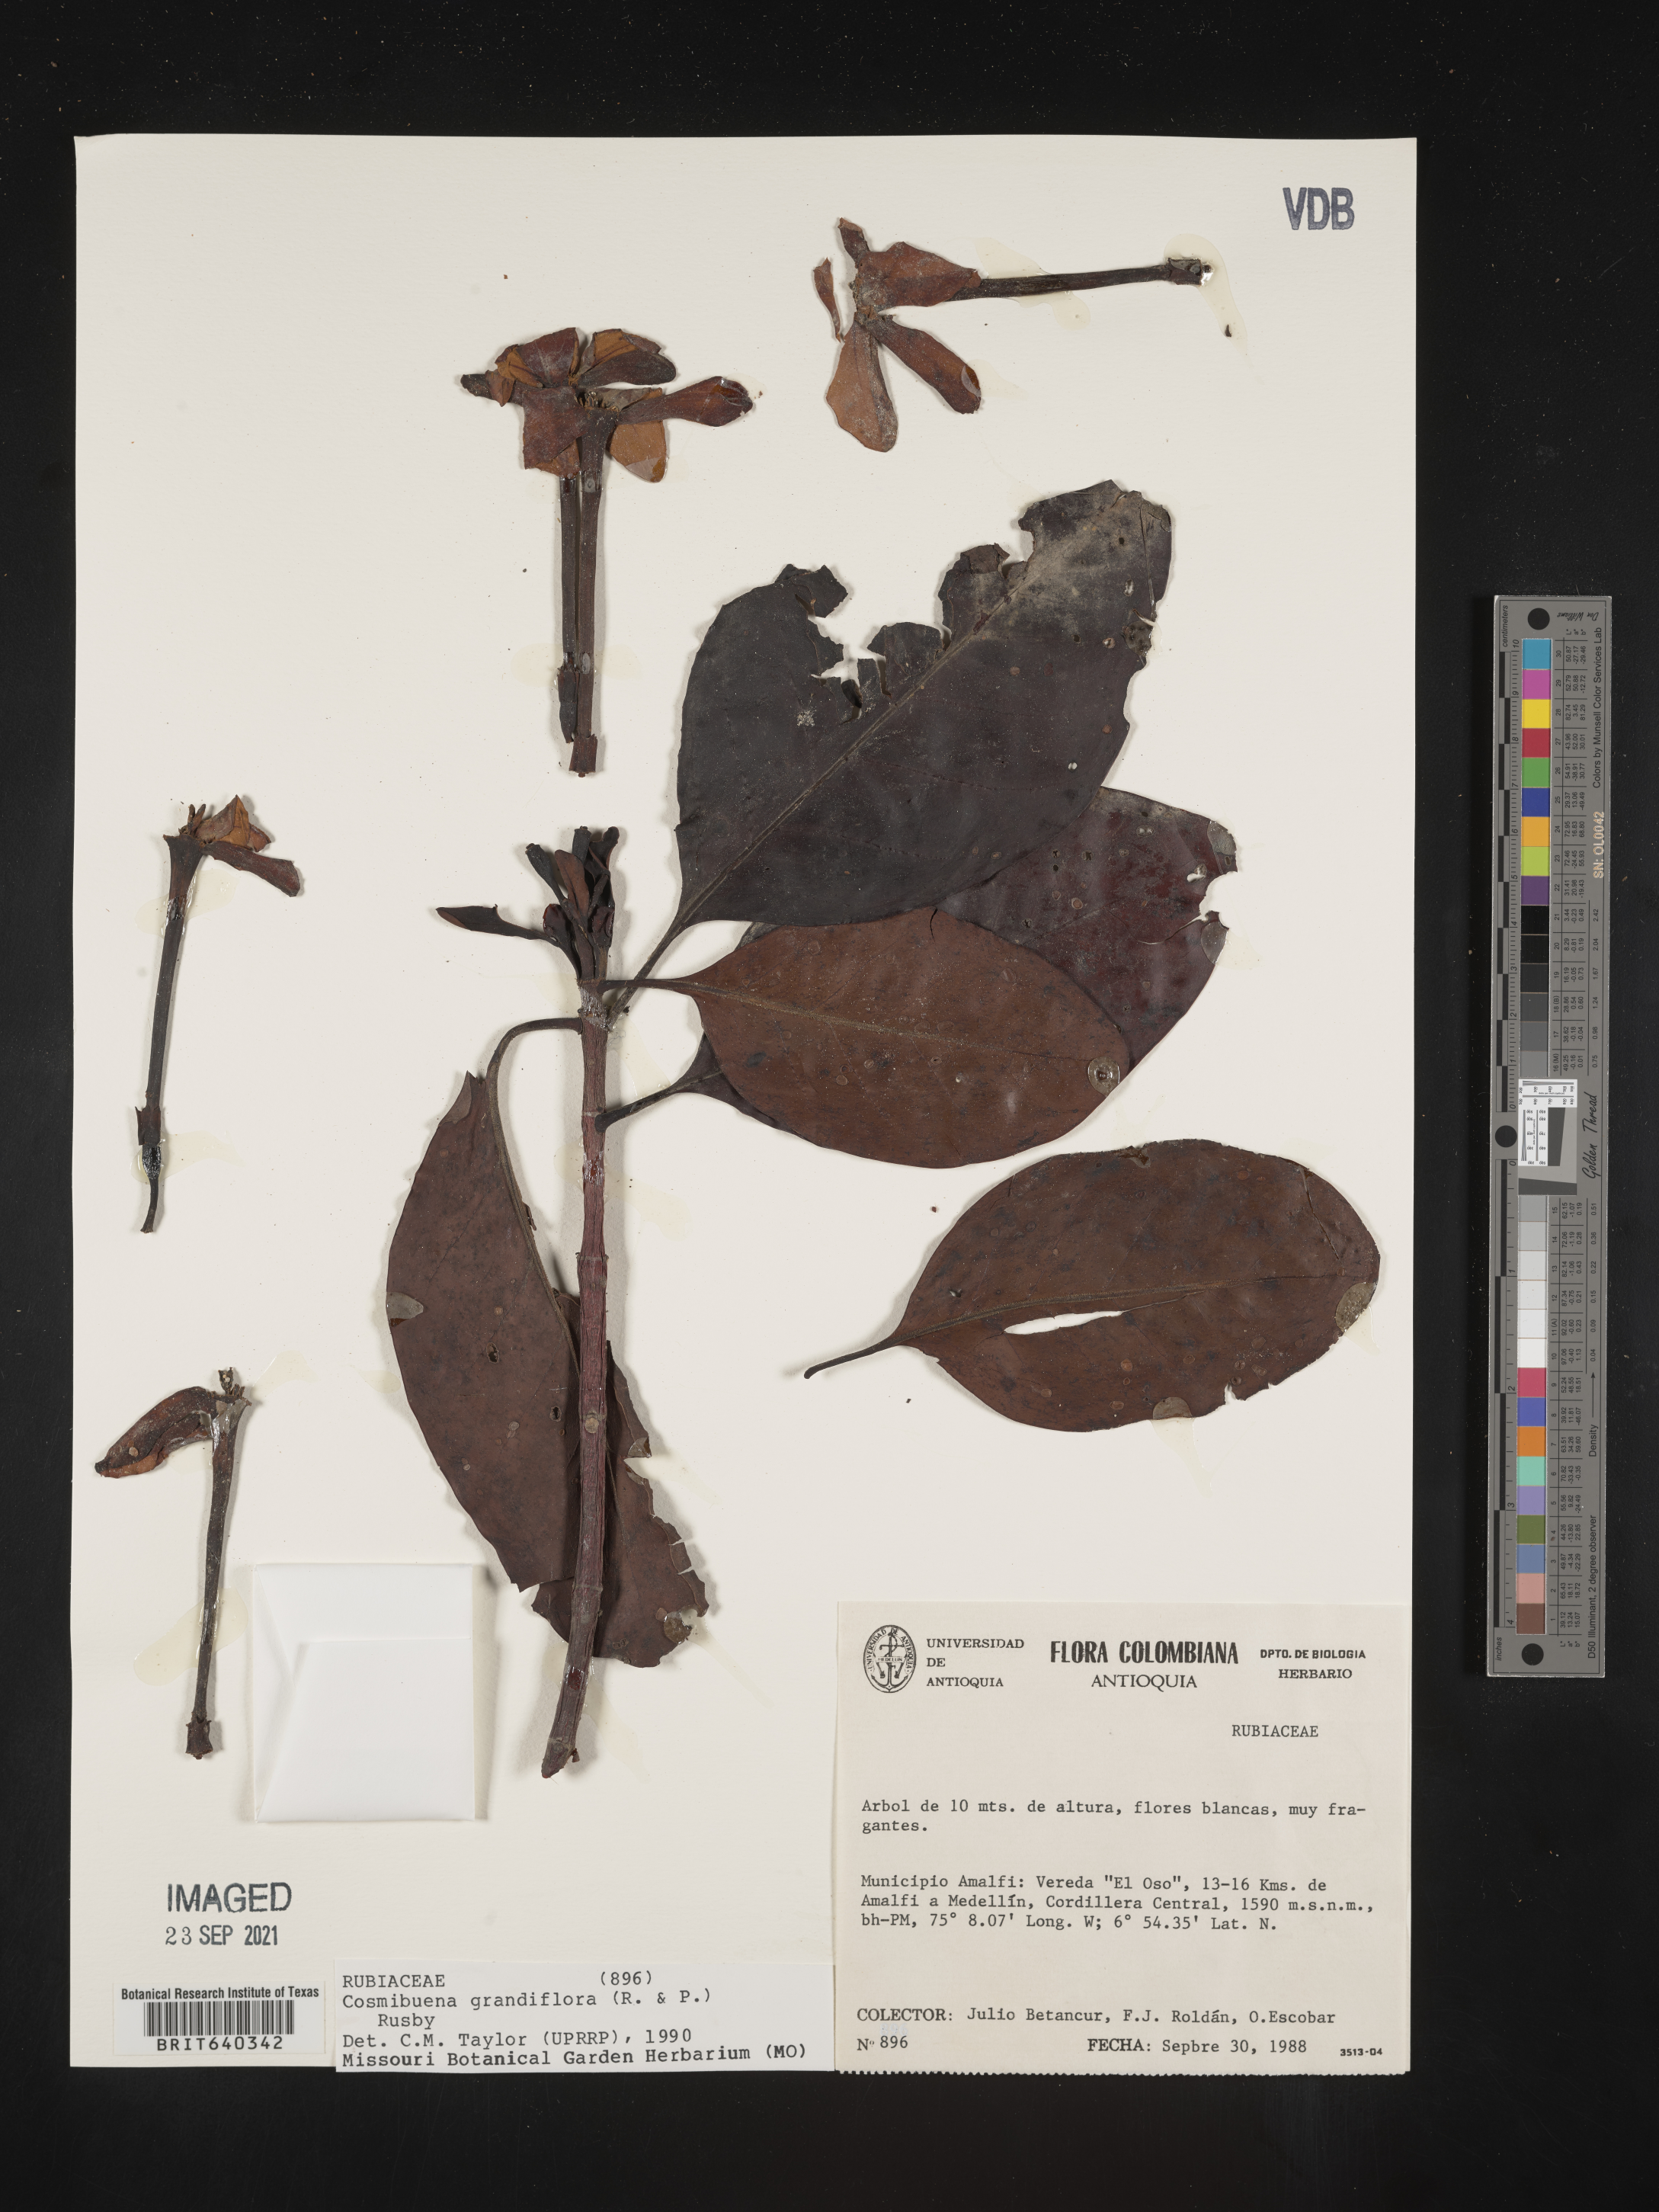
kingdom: Plantae
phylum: Tracheophyta
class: Magnoliopsida
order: Gentianales
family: Rubiaceae
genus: Cosmibuena
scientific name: Cosmibuena
